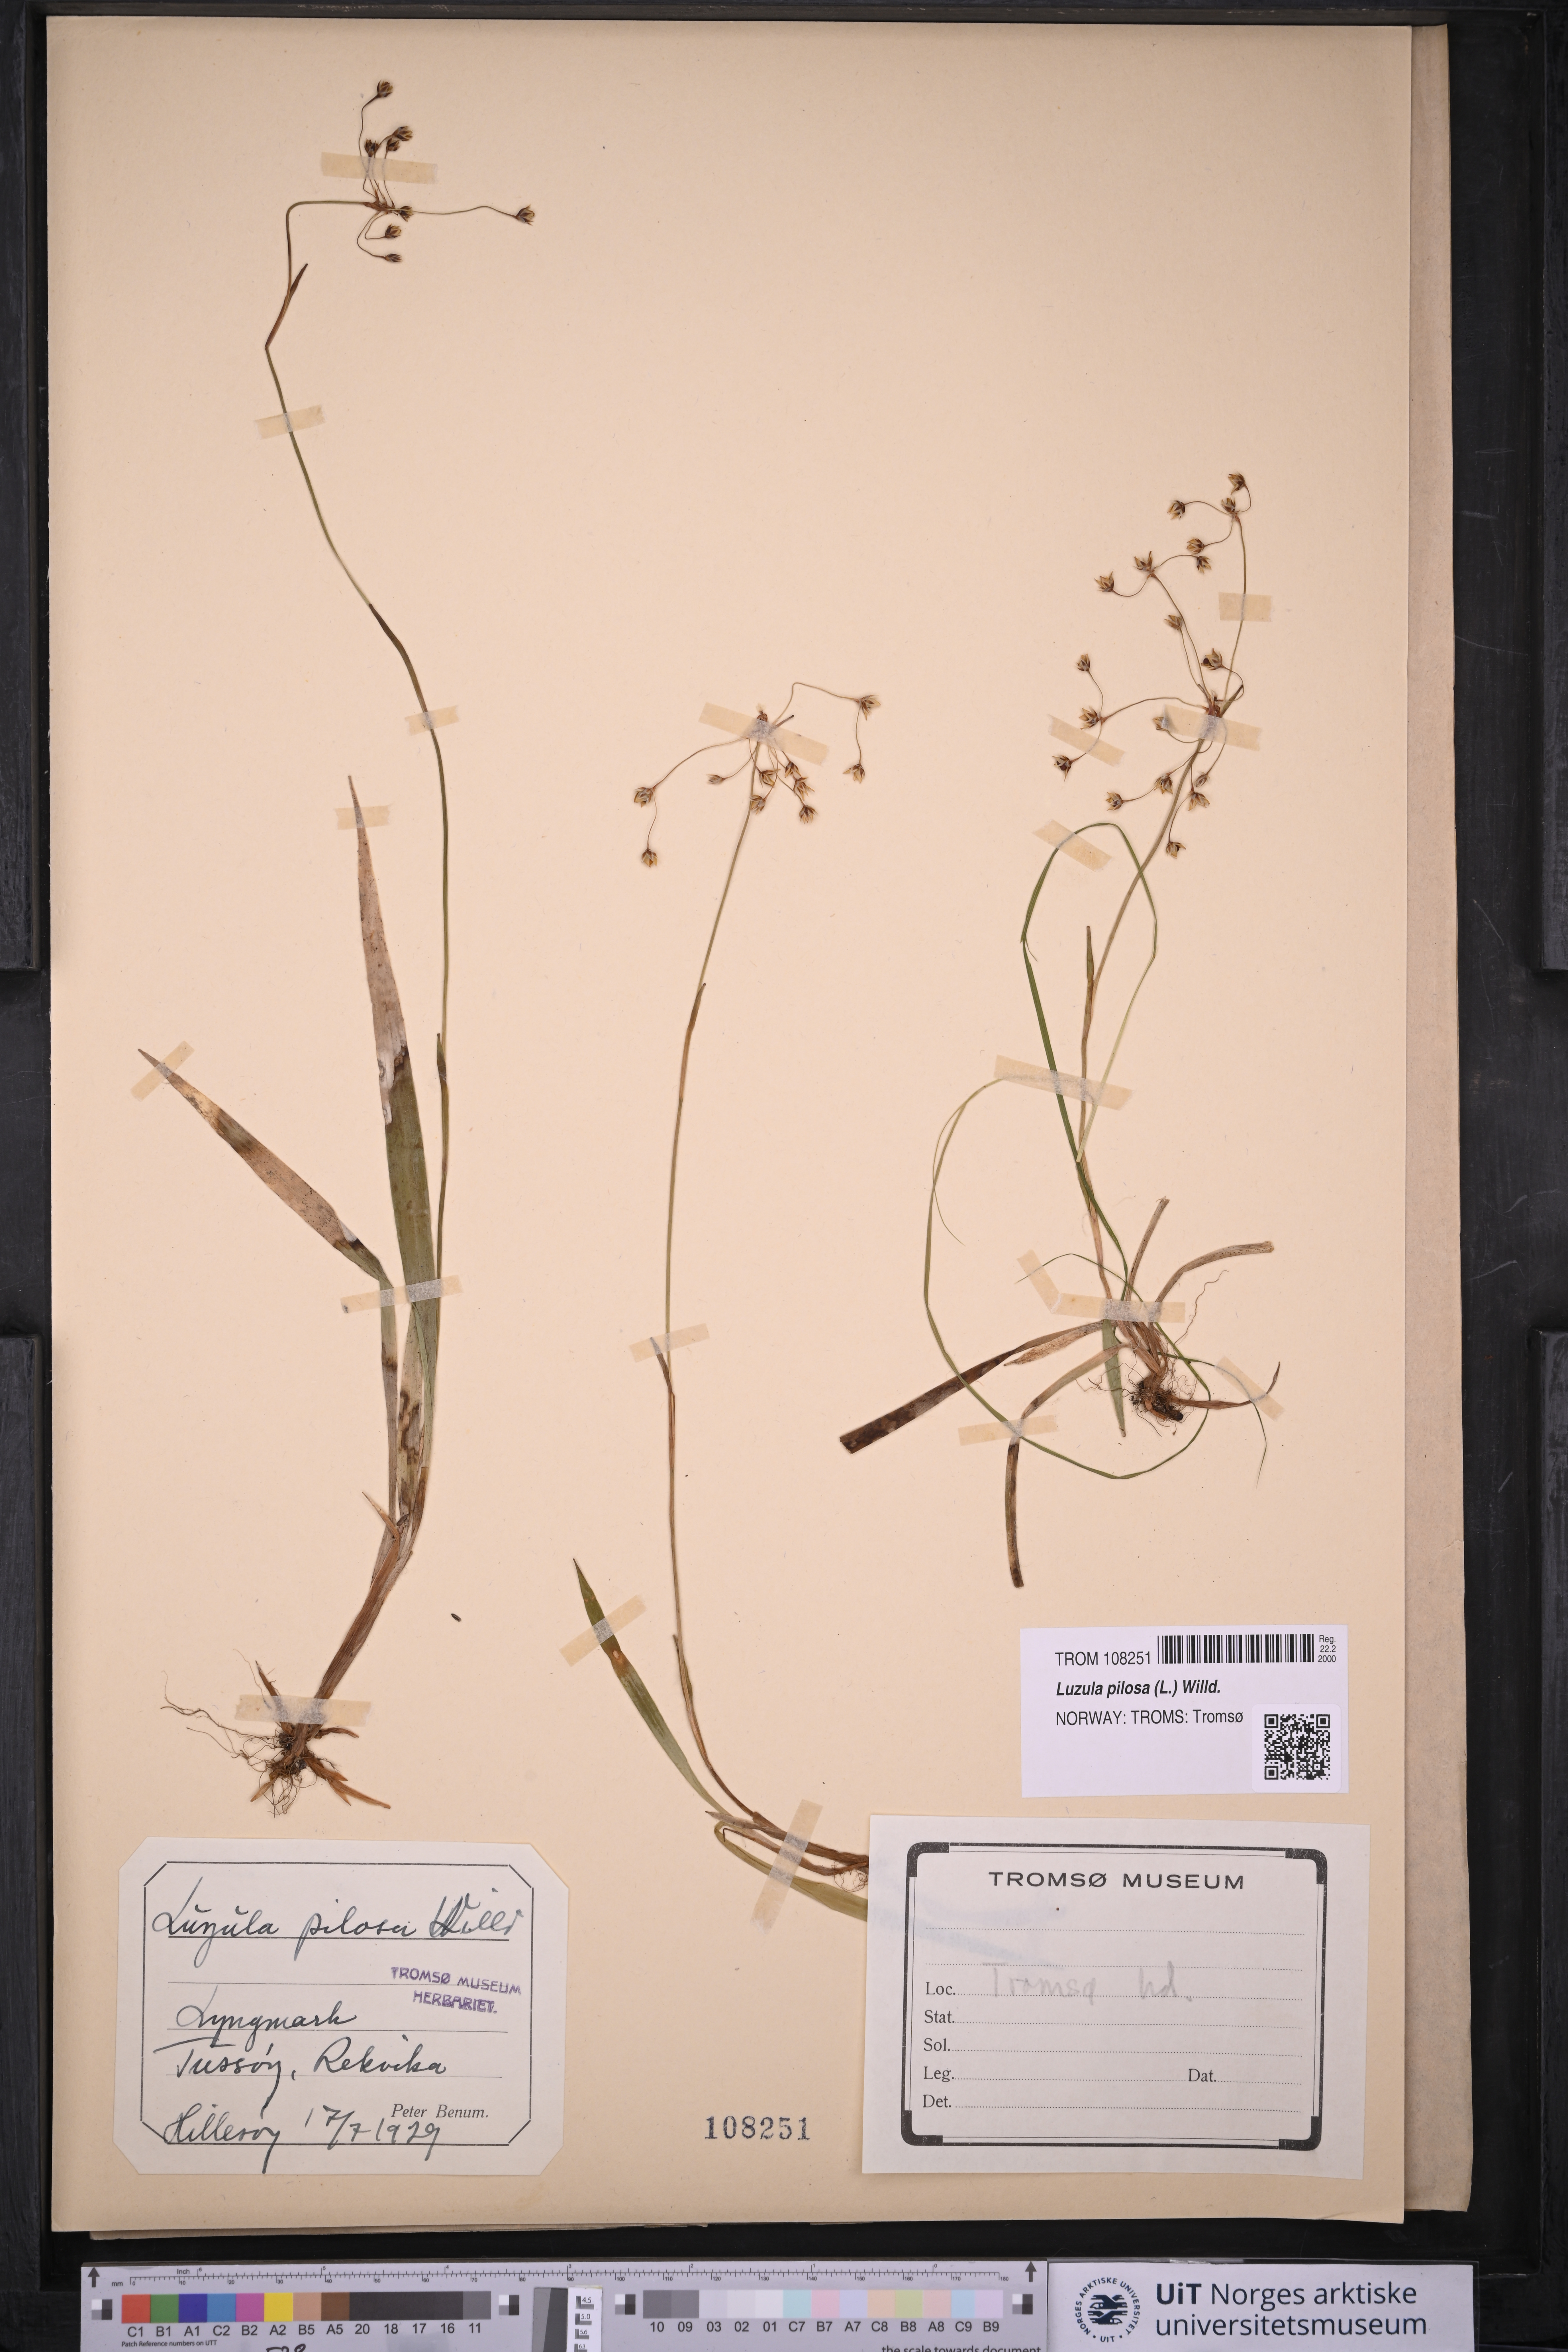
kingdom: Plantae
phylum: Tracheophyta
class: Liliopsida
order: Poales
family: Juncaceae
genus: Luzula
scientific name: Luzula pilosa
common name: Hairy wood-rush
